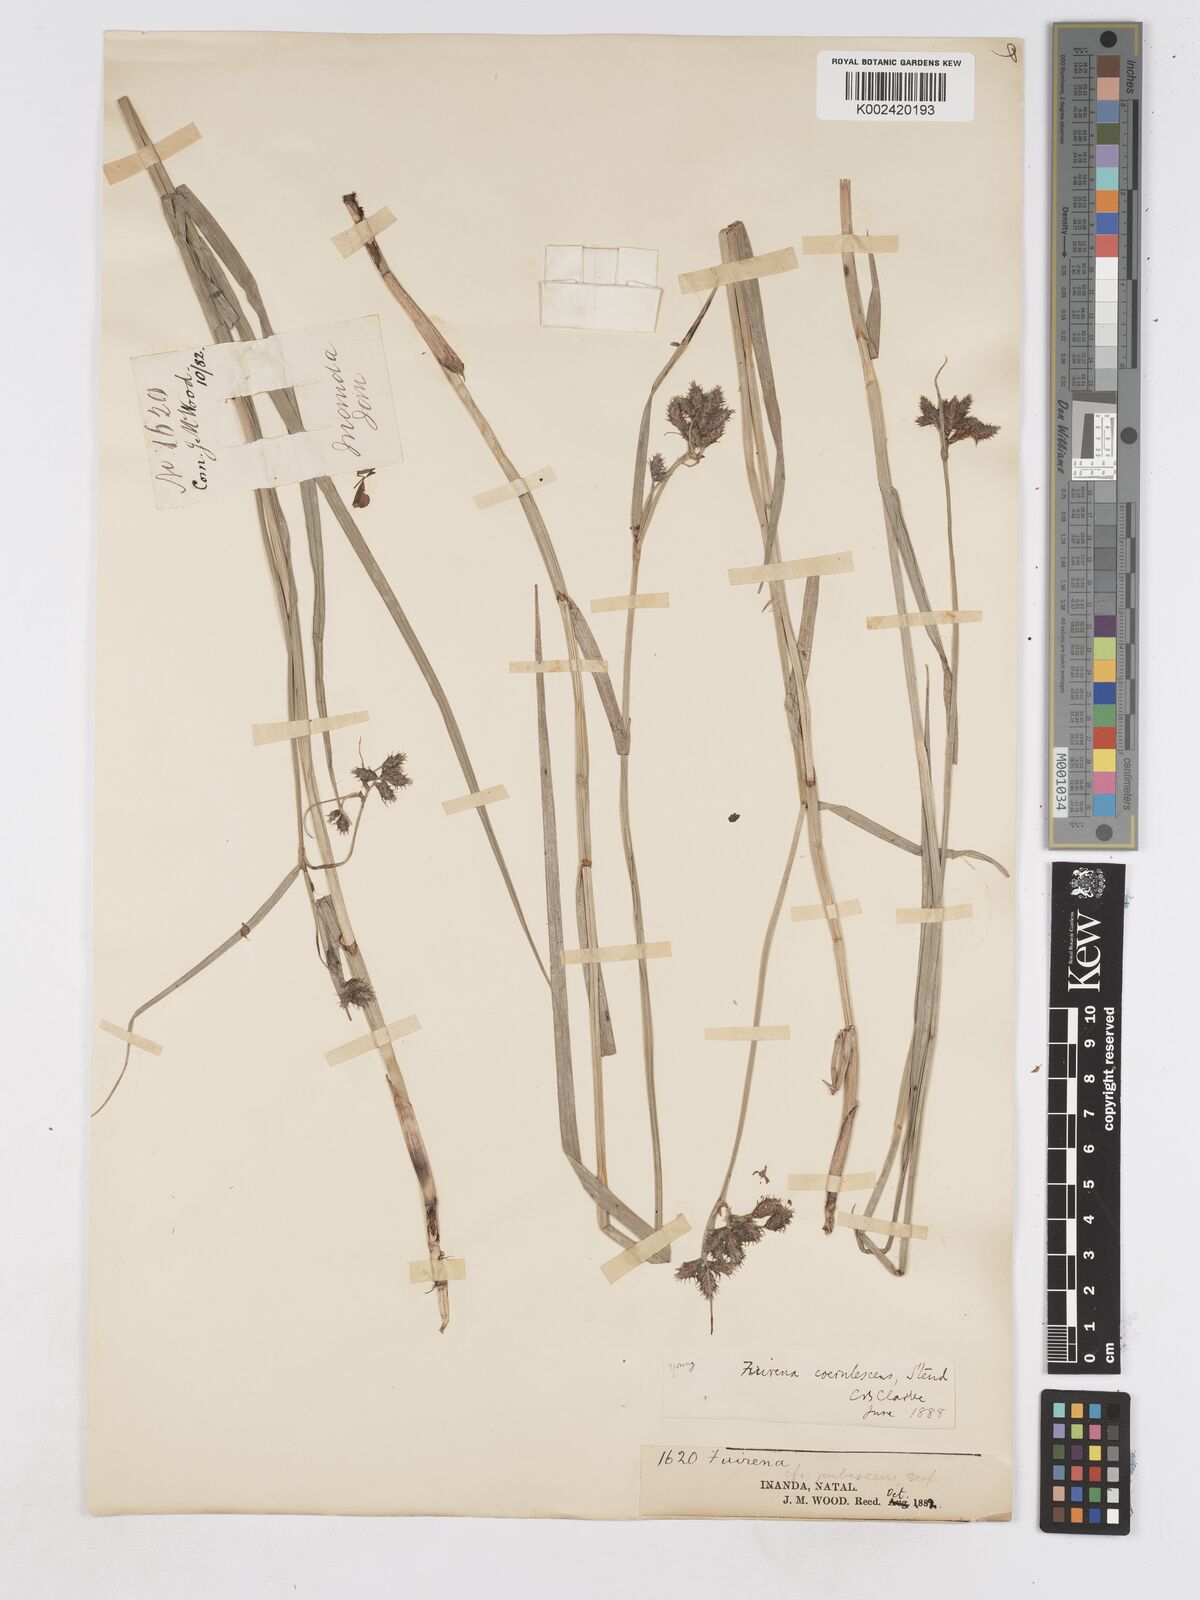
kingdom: Plantae
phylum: Tracheophyta
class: Liliopsida
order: Poales
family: Cyperaceae
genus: Fuirena
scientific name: Fuirena coerulescens
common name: Blue umbrella-sedge
